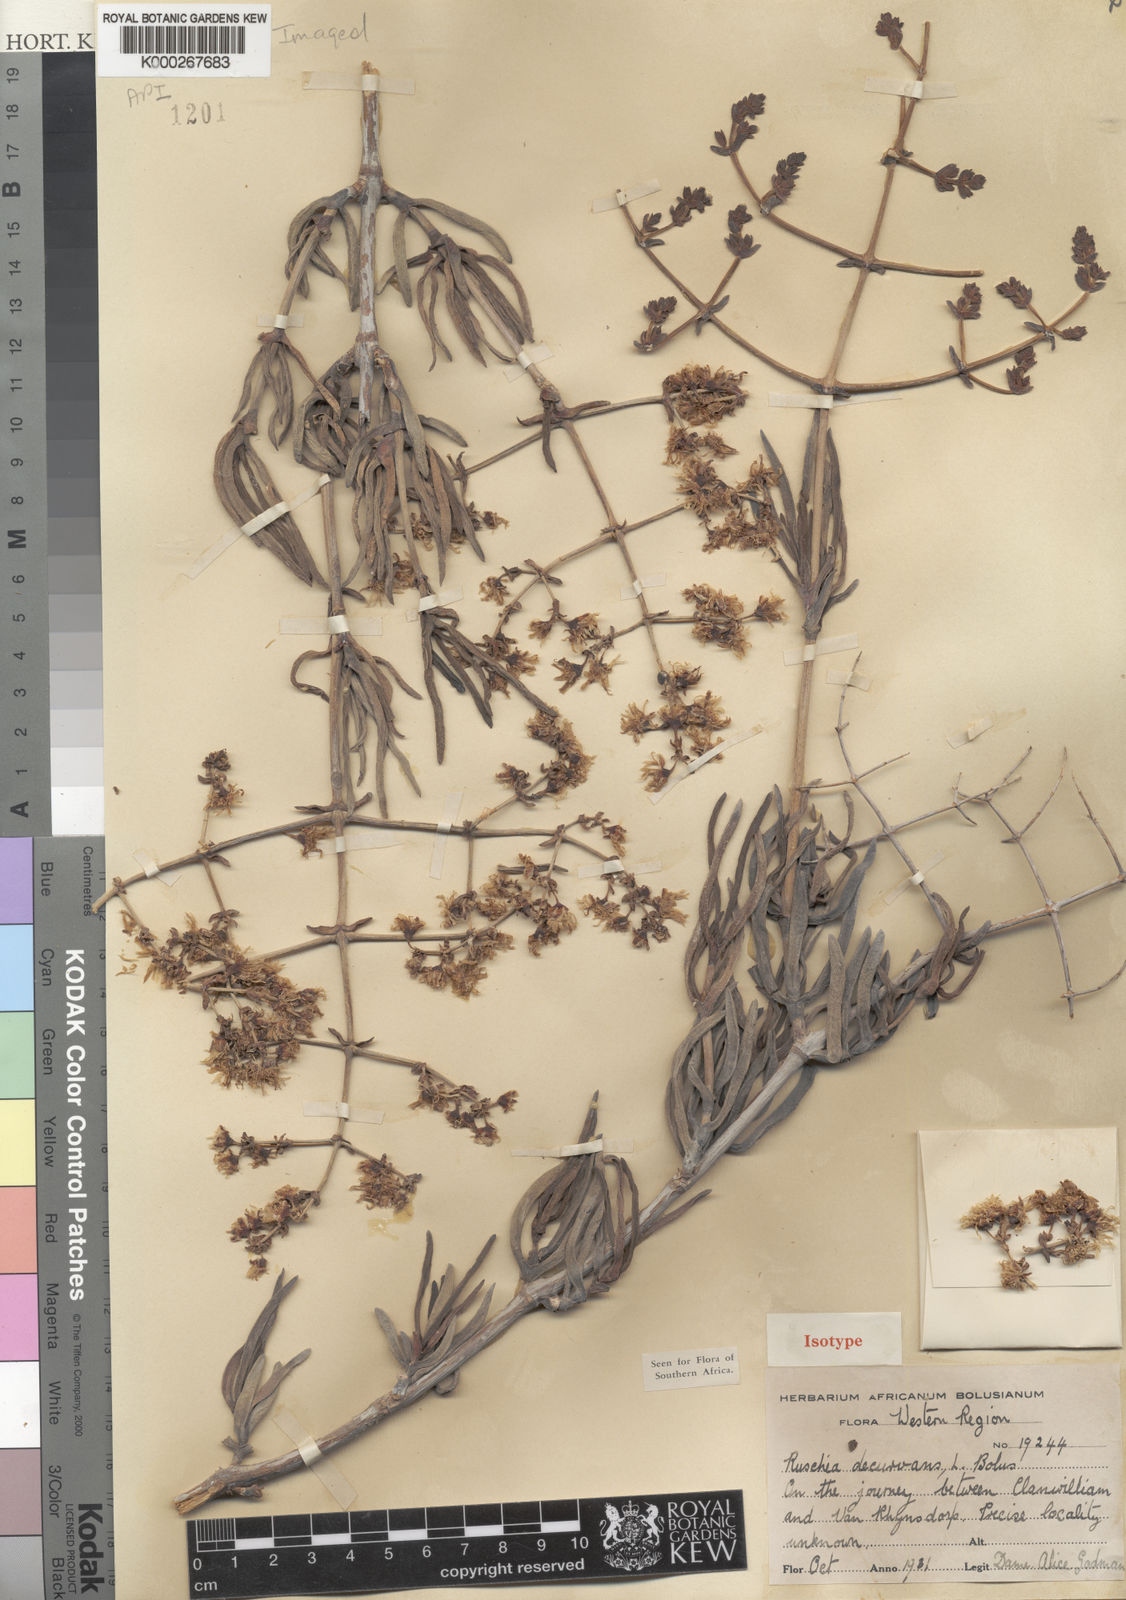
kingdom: Plantae
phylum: Tracheophyta
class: Magnoliopsida
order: Caryophyllales
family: Aizoaceae
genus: Ruschia
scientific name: Ruschia decurvans
